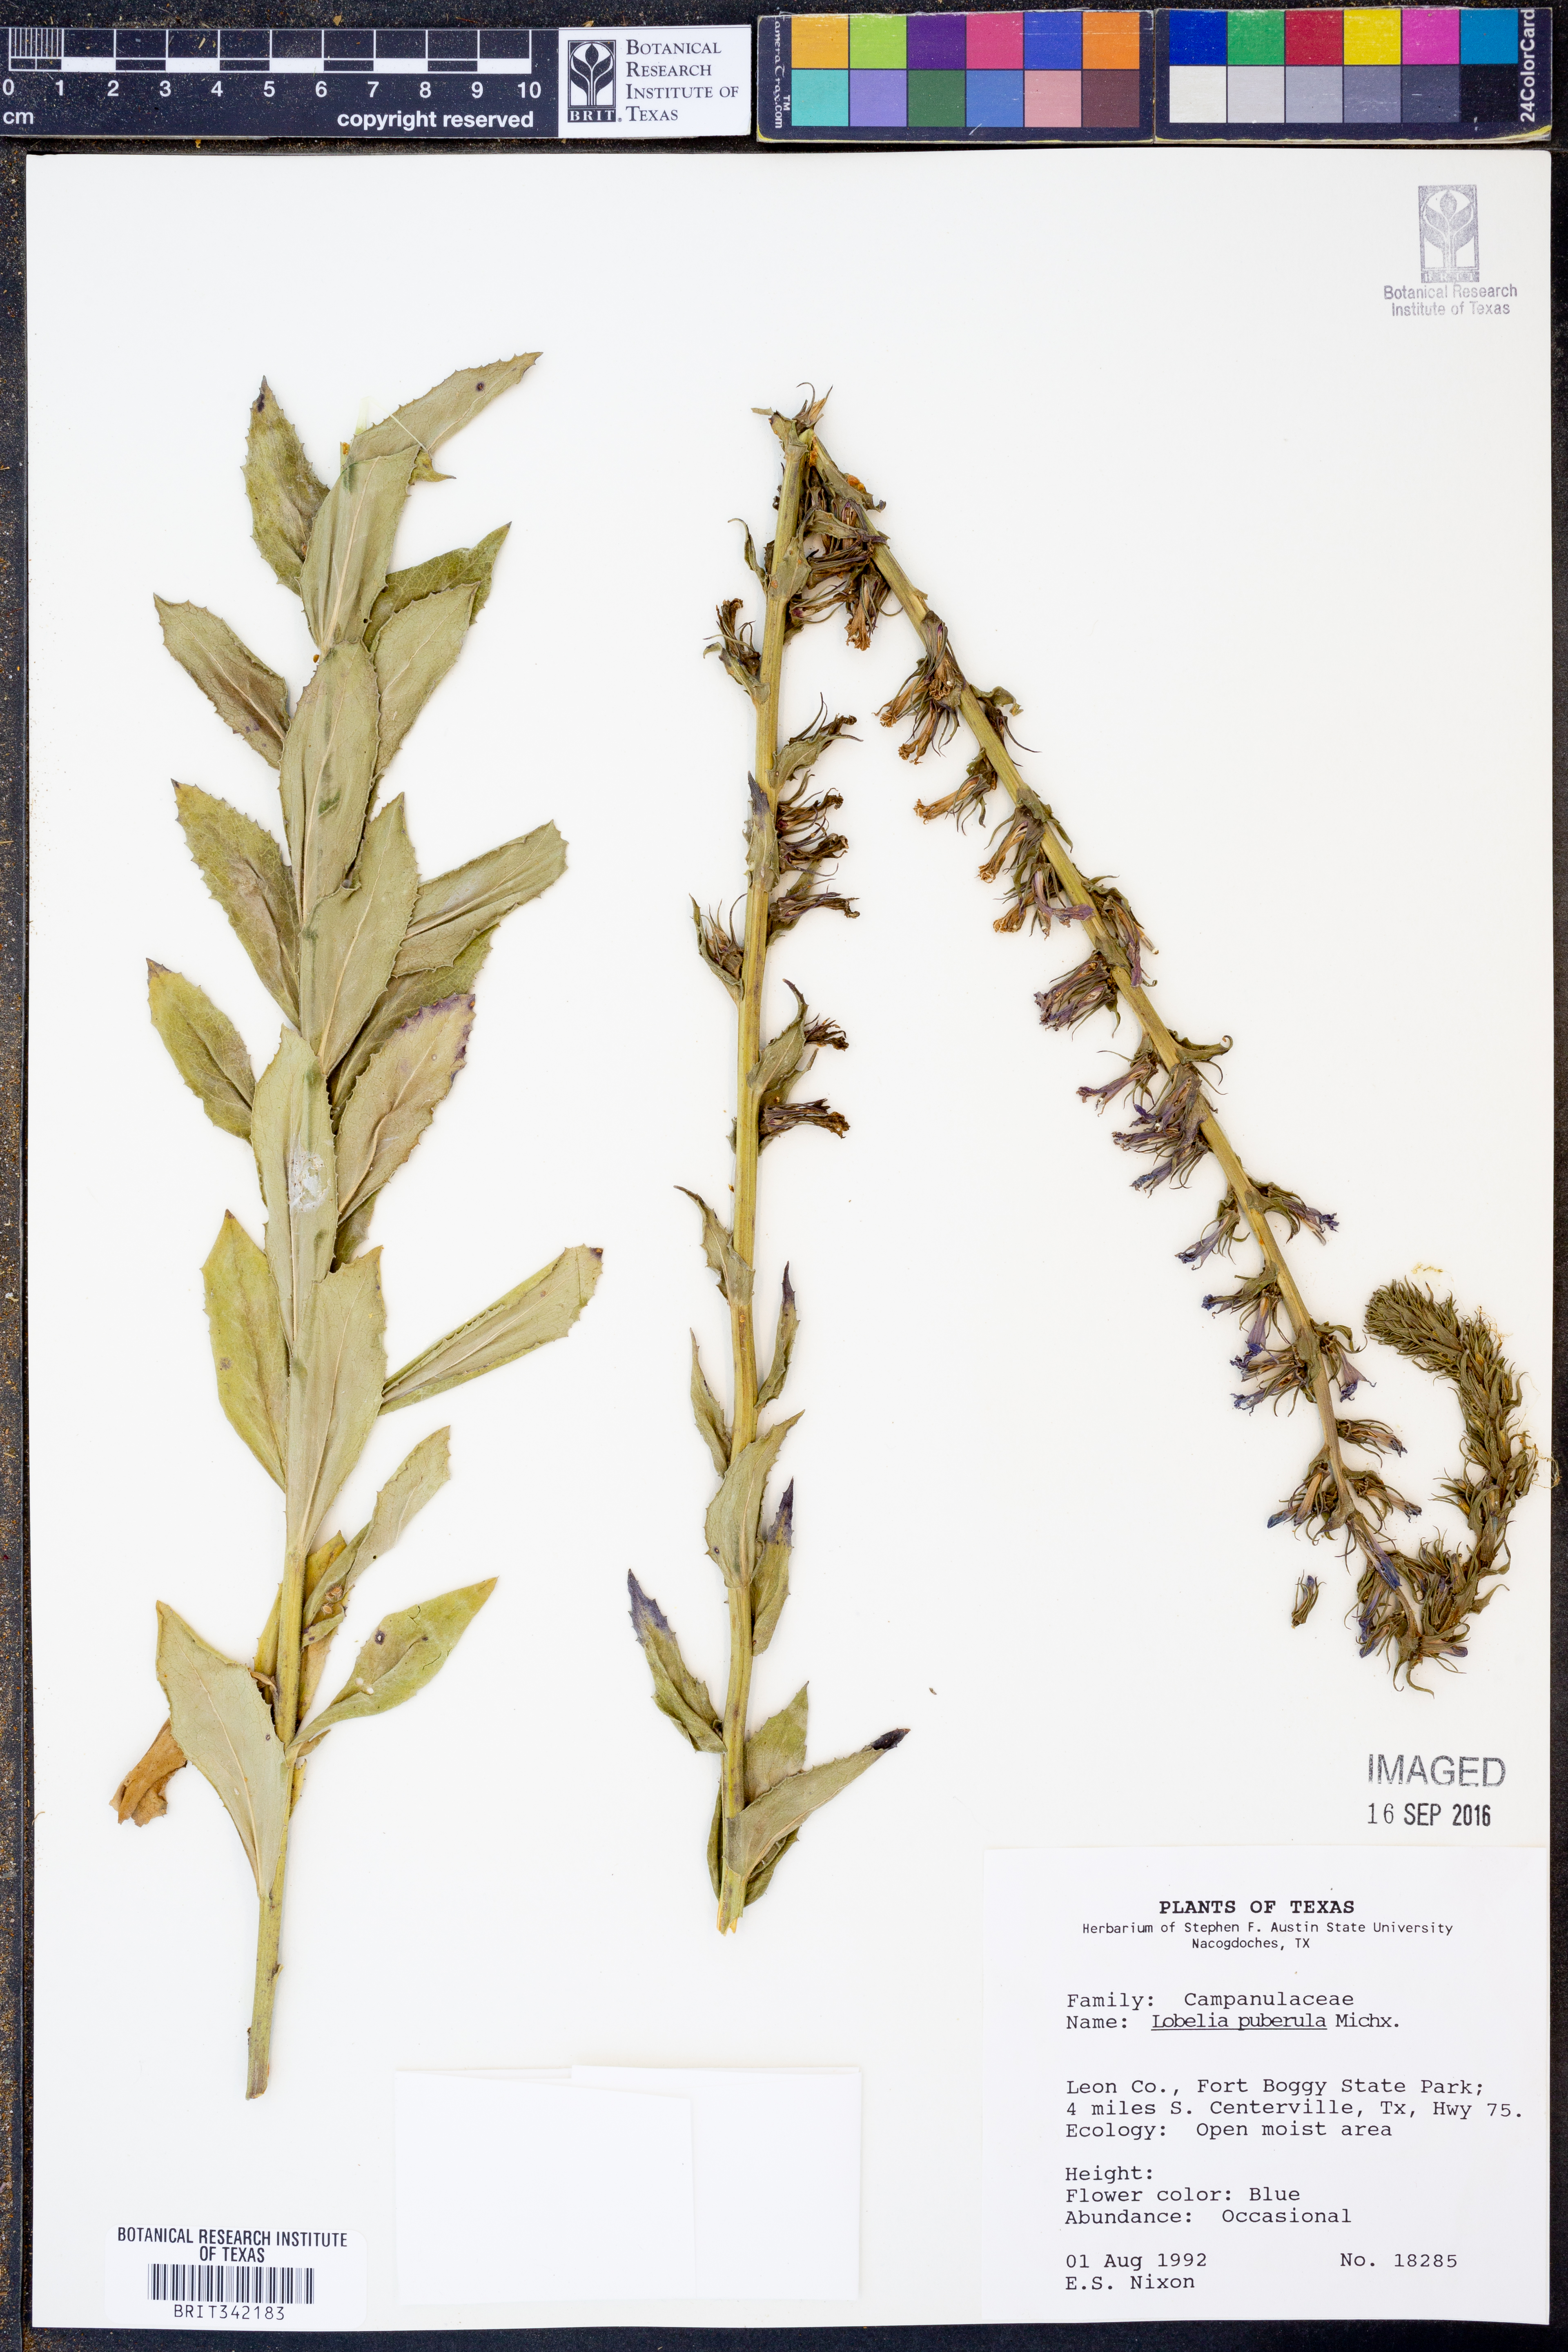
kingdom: Plantae
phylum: Tracheophyta
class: Magnoliopsida
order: Asterales
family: Campanulaceae
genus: Lobelia
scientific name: Lobelia puberula
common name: Purple dewdrop
